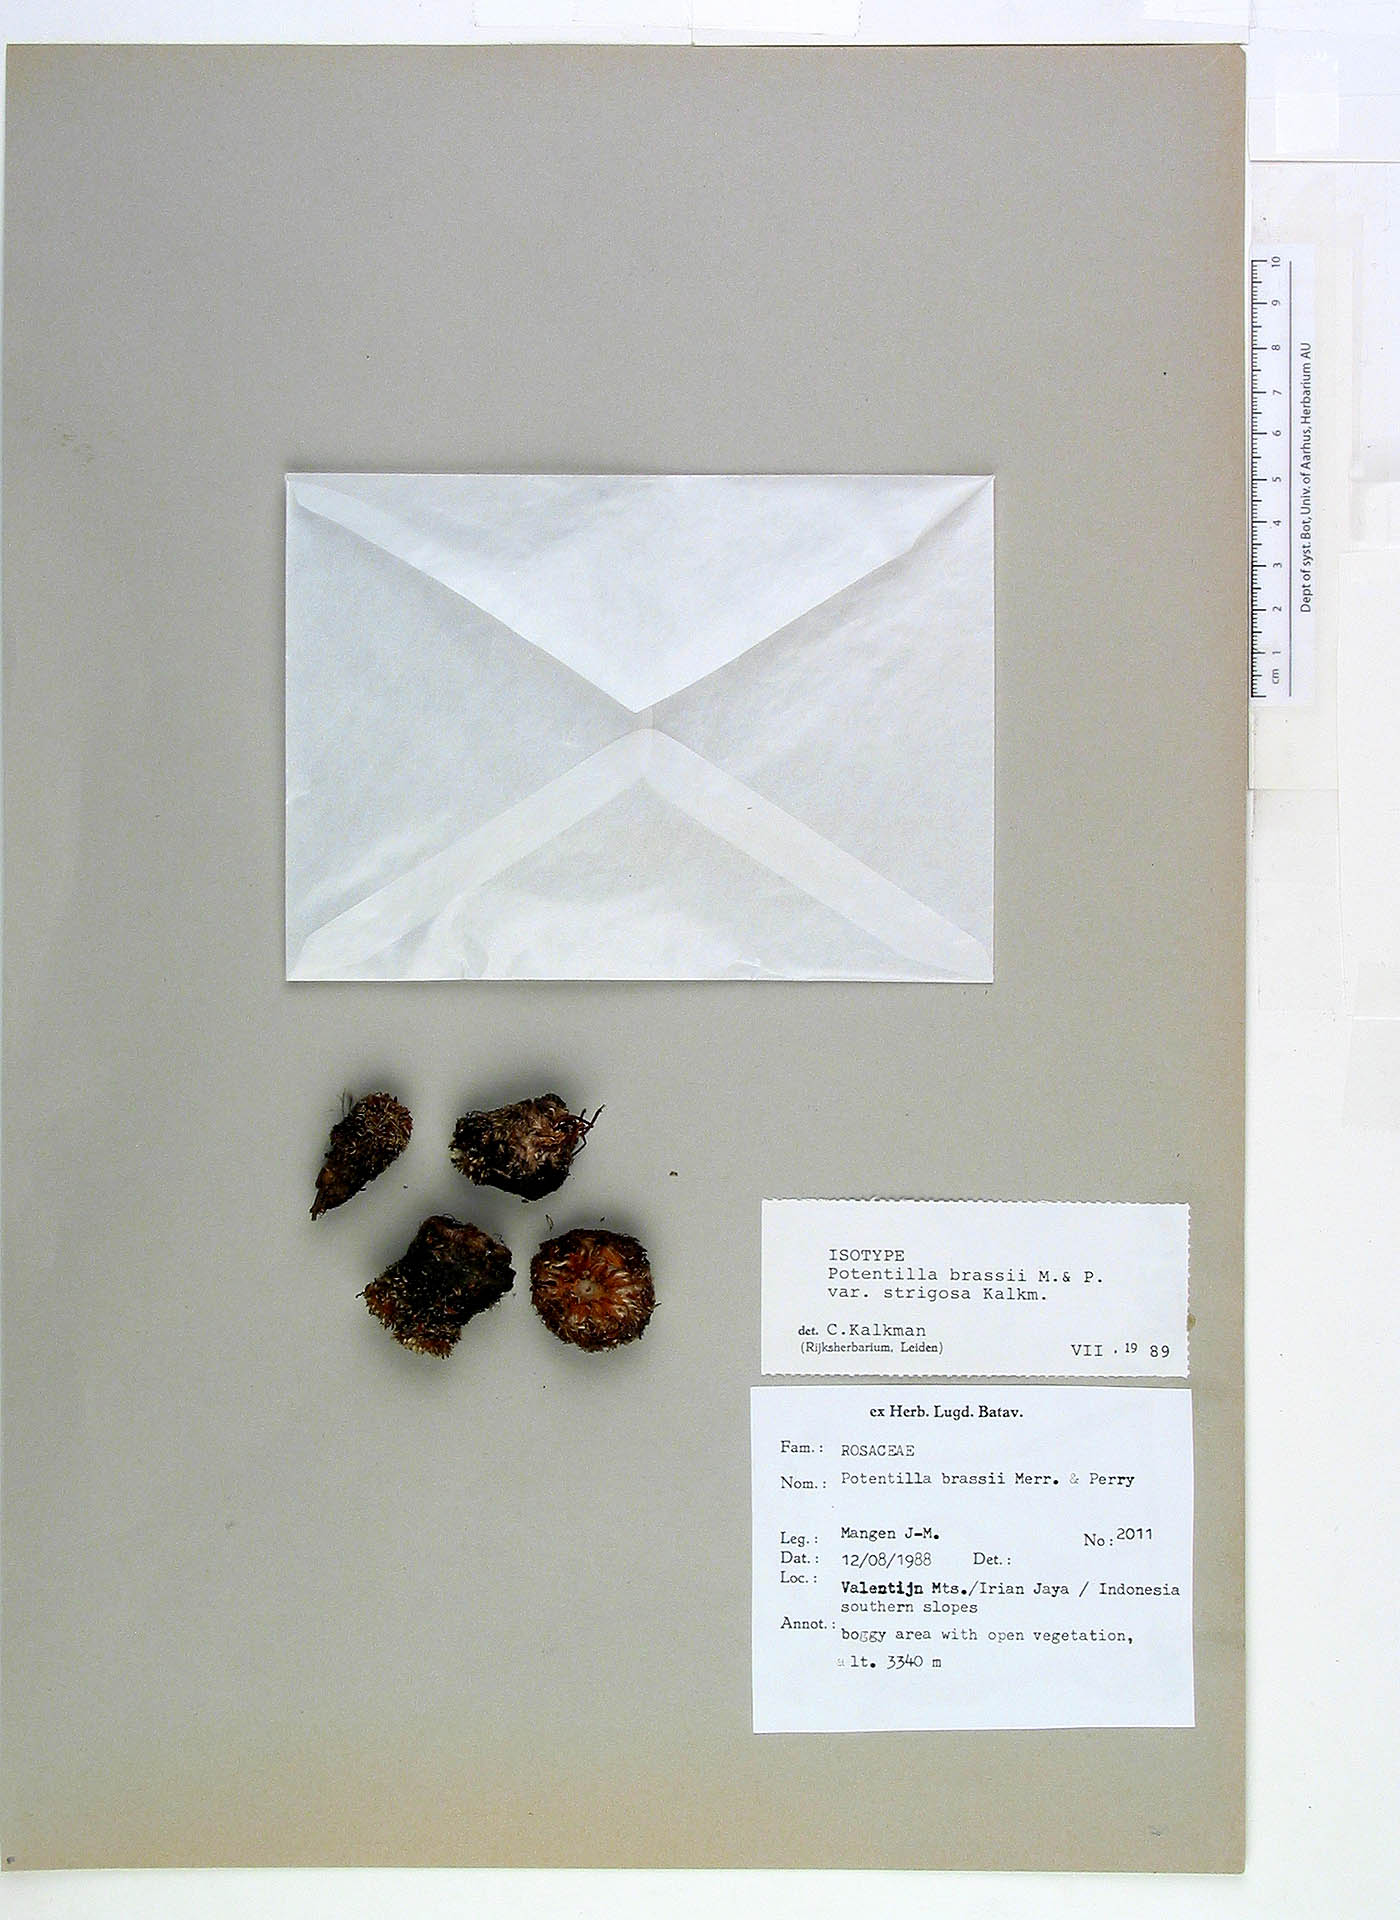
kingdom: Plantae
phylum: Tracheophyta
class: Magnoliopsida
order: Rosales
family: Rosaceae
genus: Argentina
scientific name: Argentina brassii
